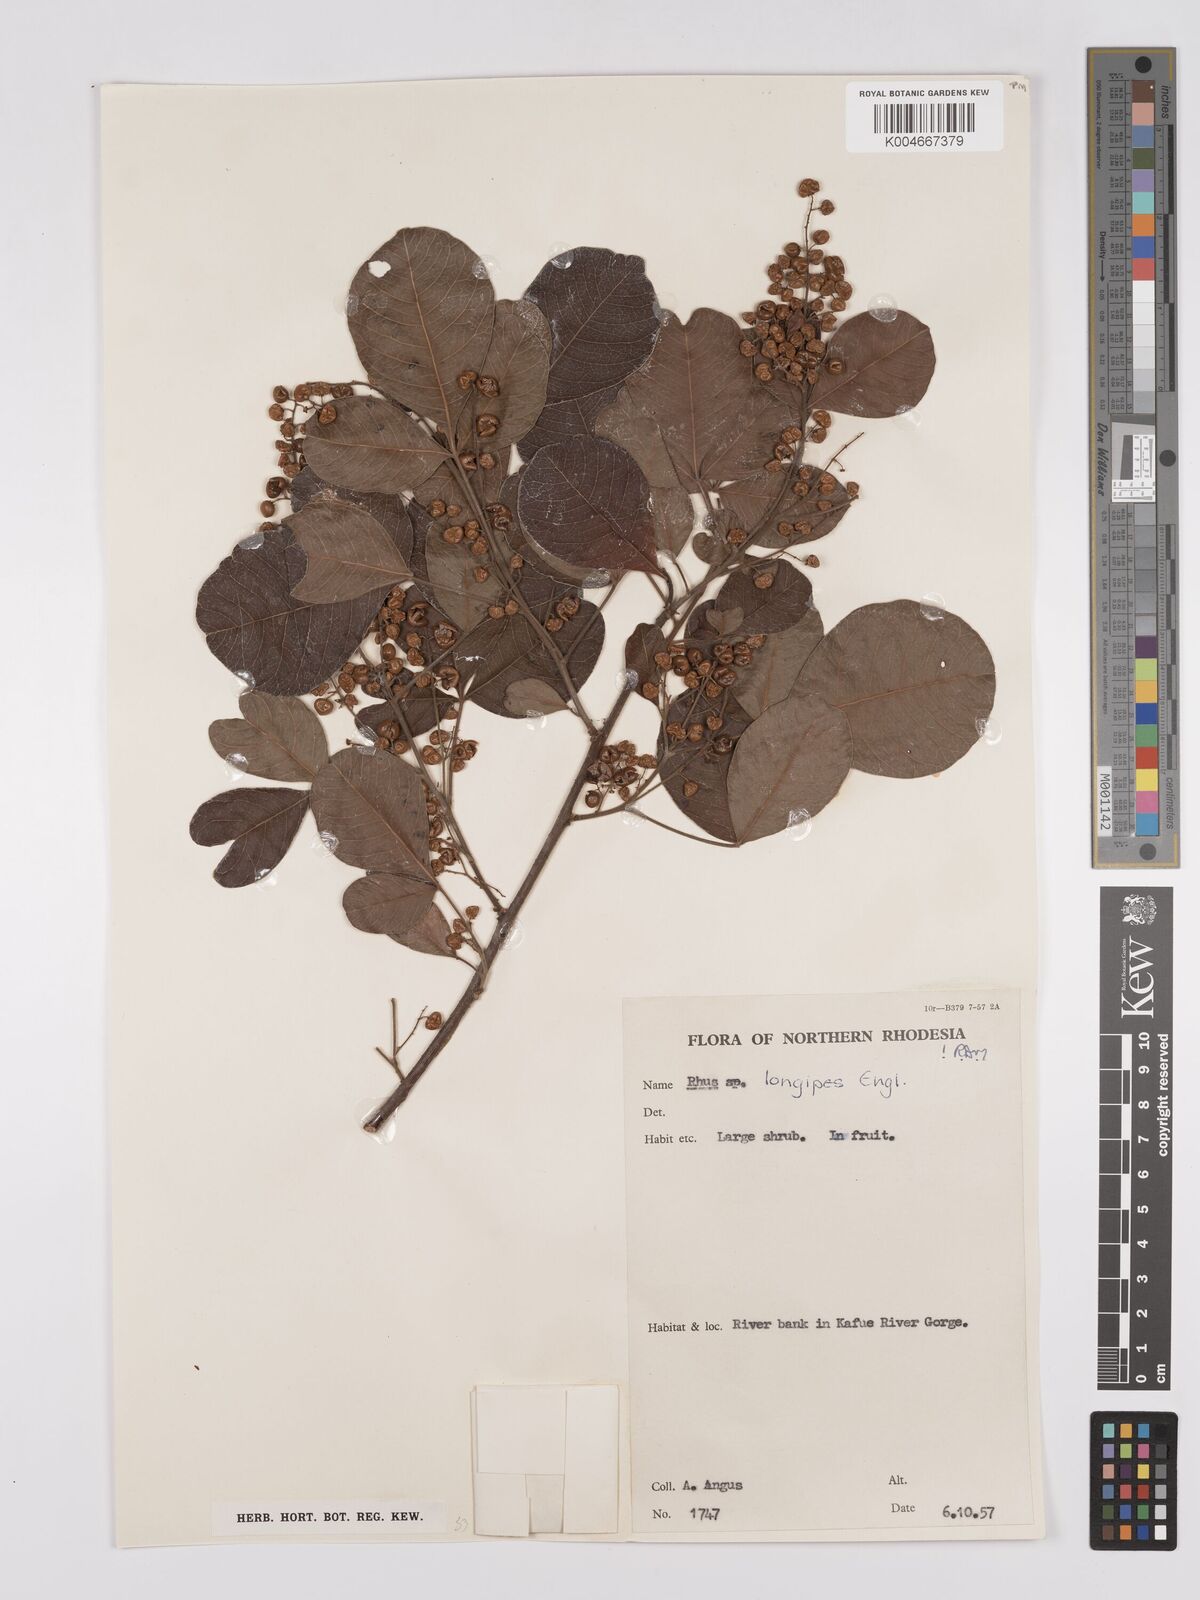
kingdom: Plantae
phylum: Tracheophyta
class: Magnoliopsida
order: Sapindales
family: Anacardiaceae
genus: Searsia
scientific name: Searsia longipes
